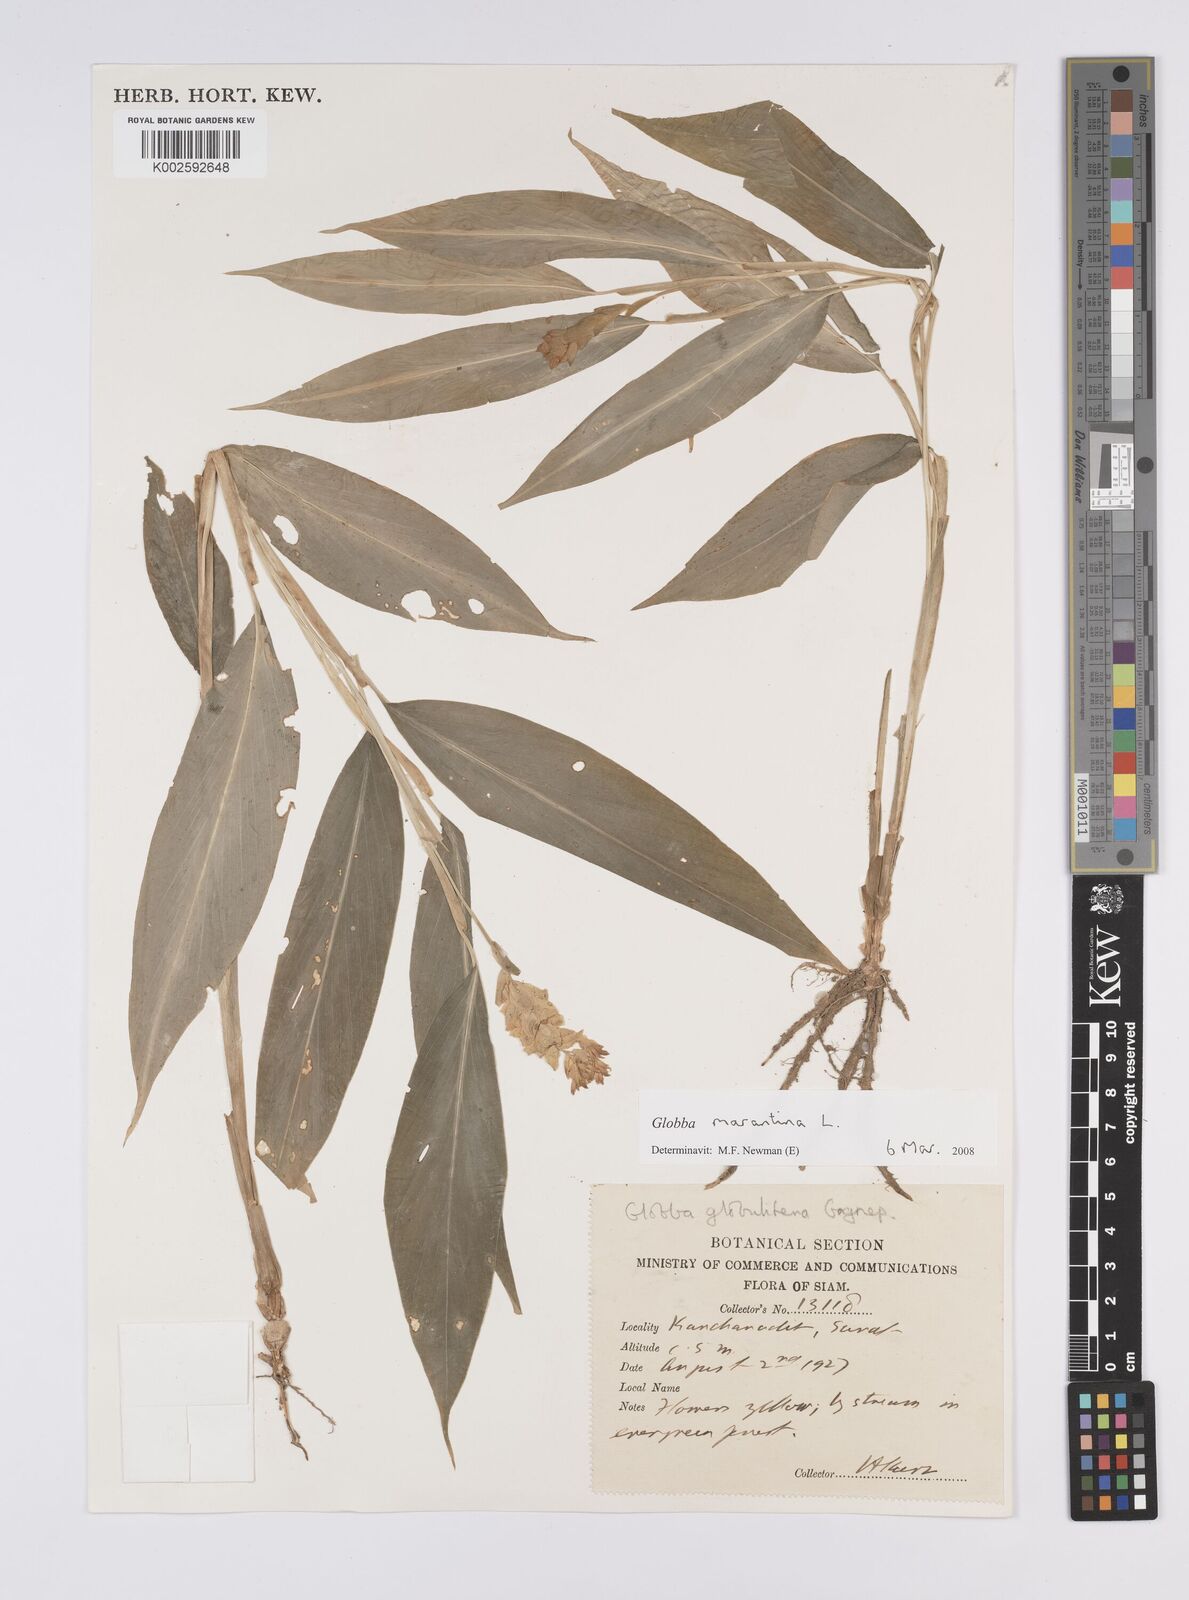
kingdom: Plantae
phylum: Tracheophyta
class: Liliopsida
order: Zingiberales
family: Zingiberaceae
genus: Globba
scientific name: Globba marantina
